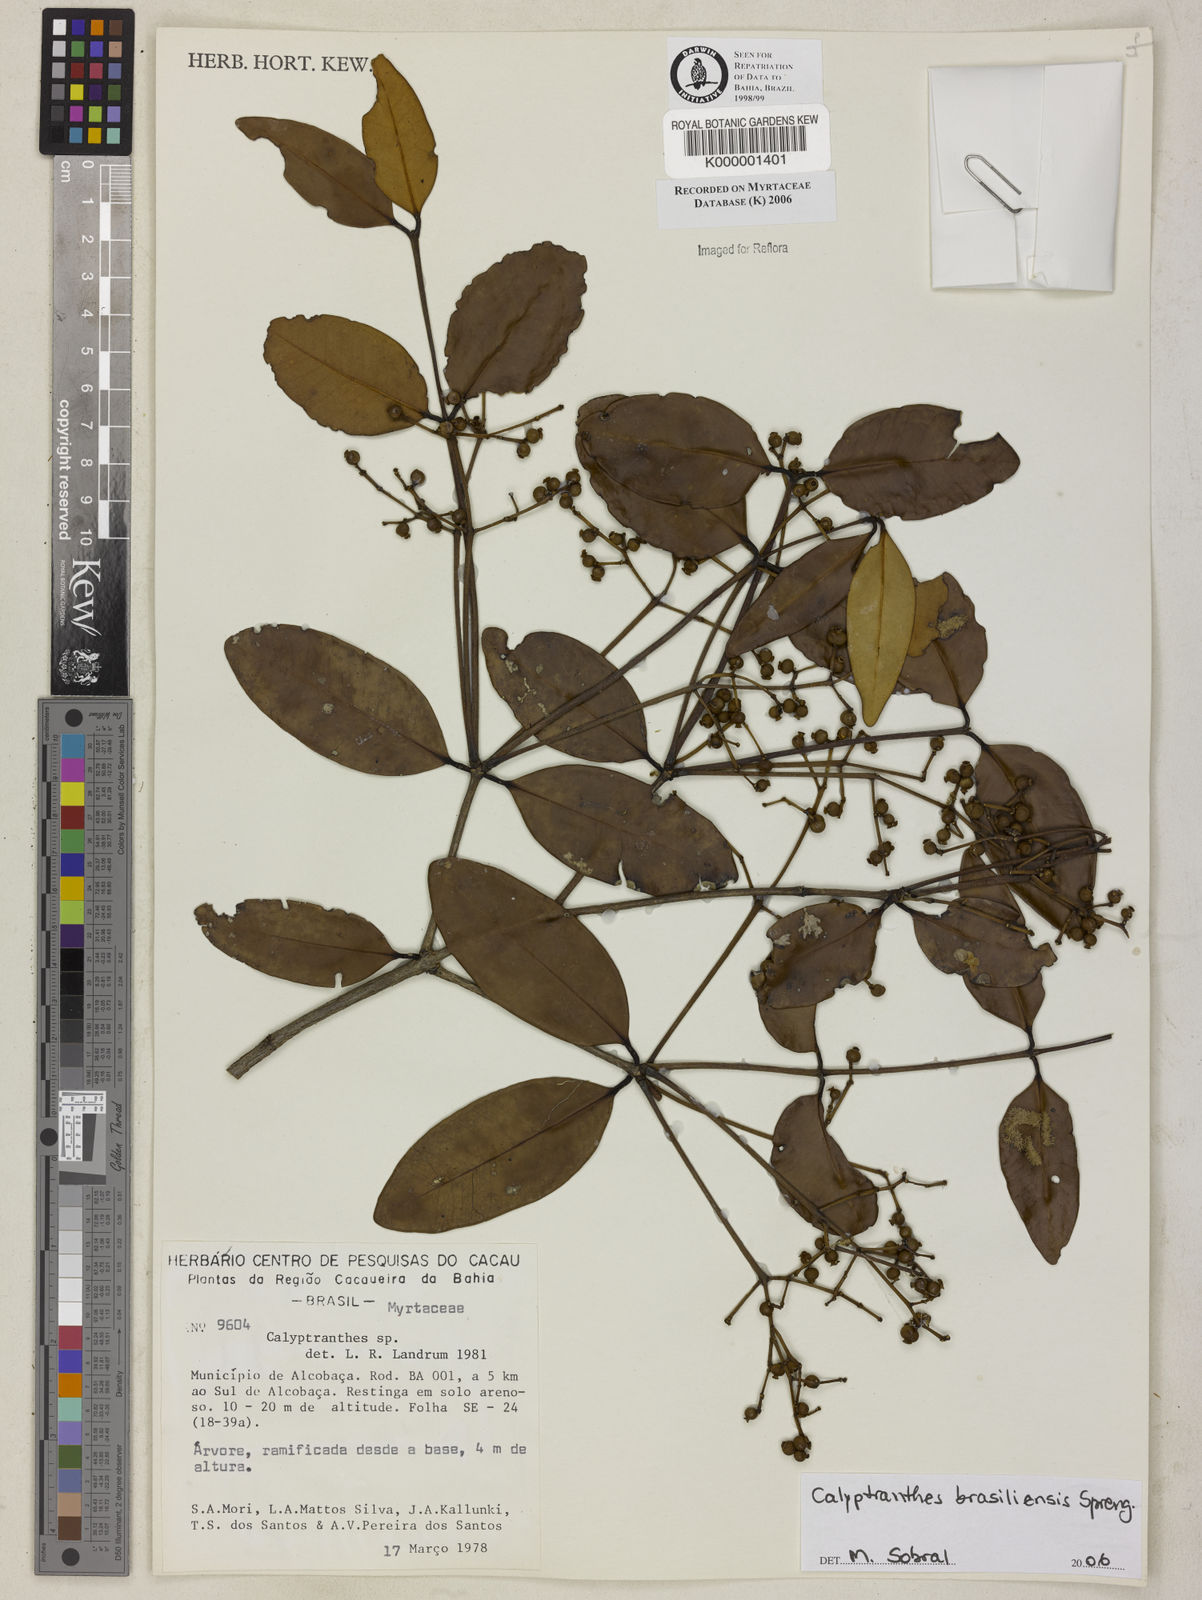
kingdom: Plantae
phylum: Tracheophyta
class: Magnoliopsida
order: Myrtales
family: Myrtaceae
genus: Calyptranthes
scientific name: Calyptranthes
